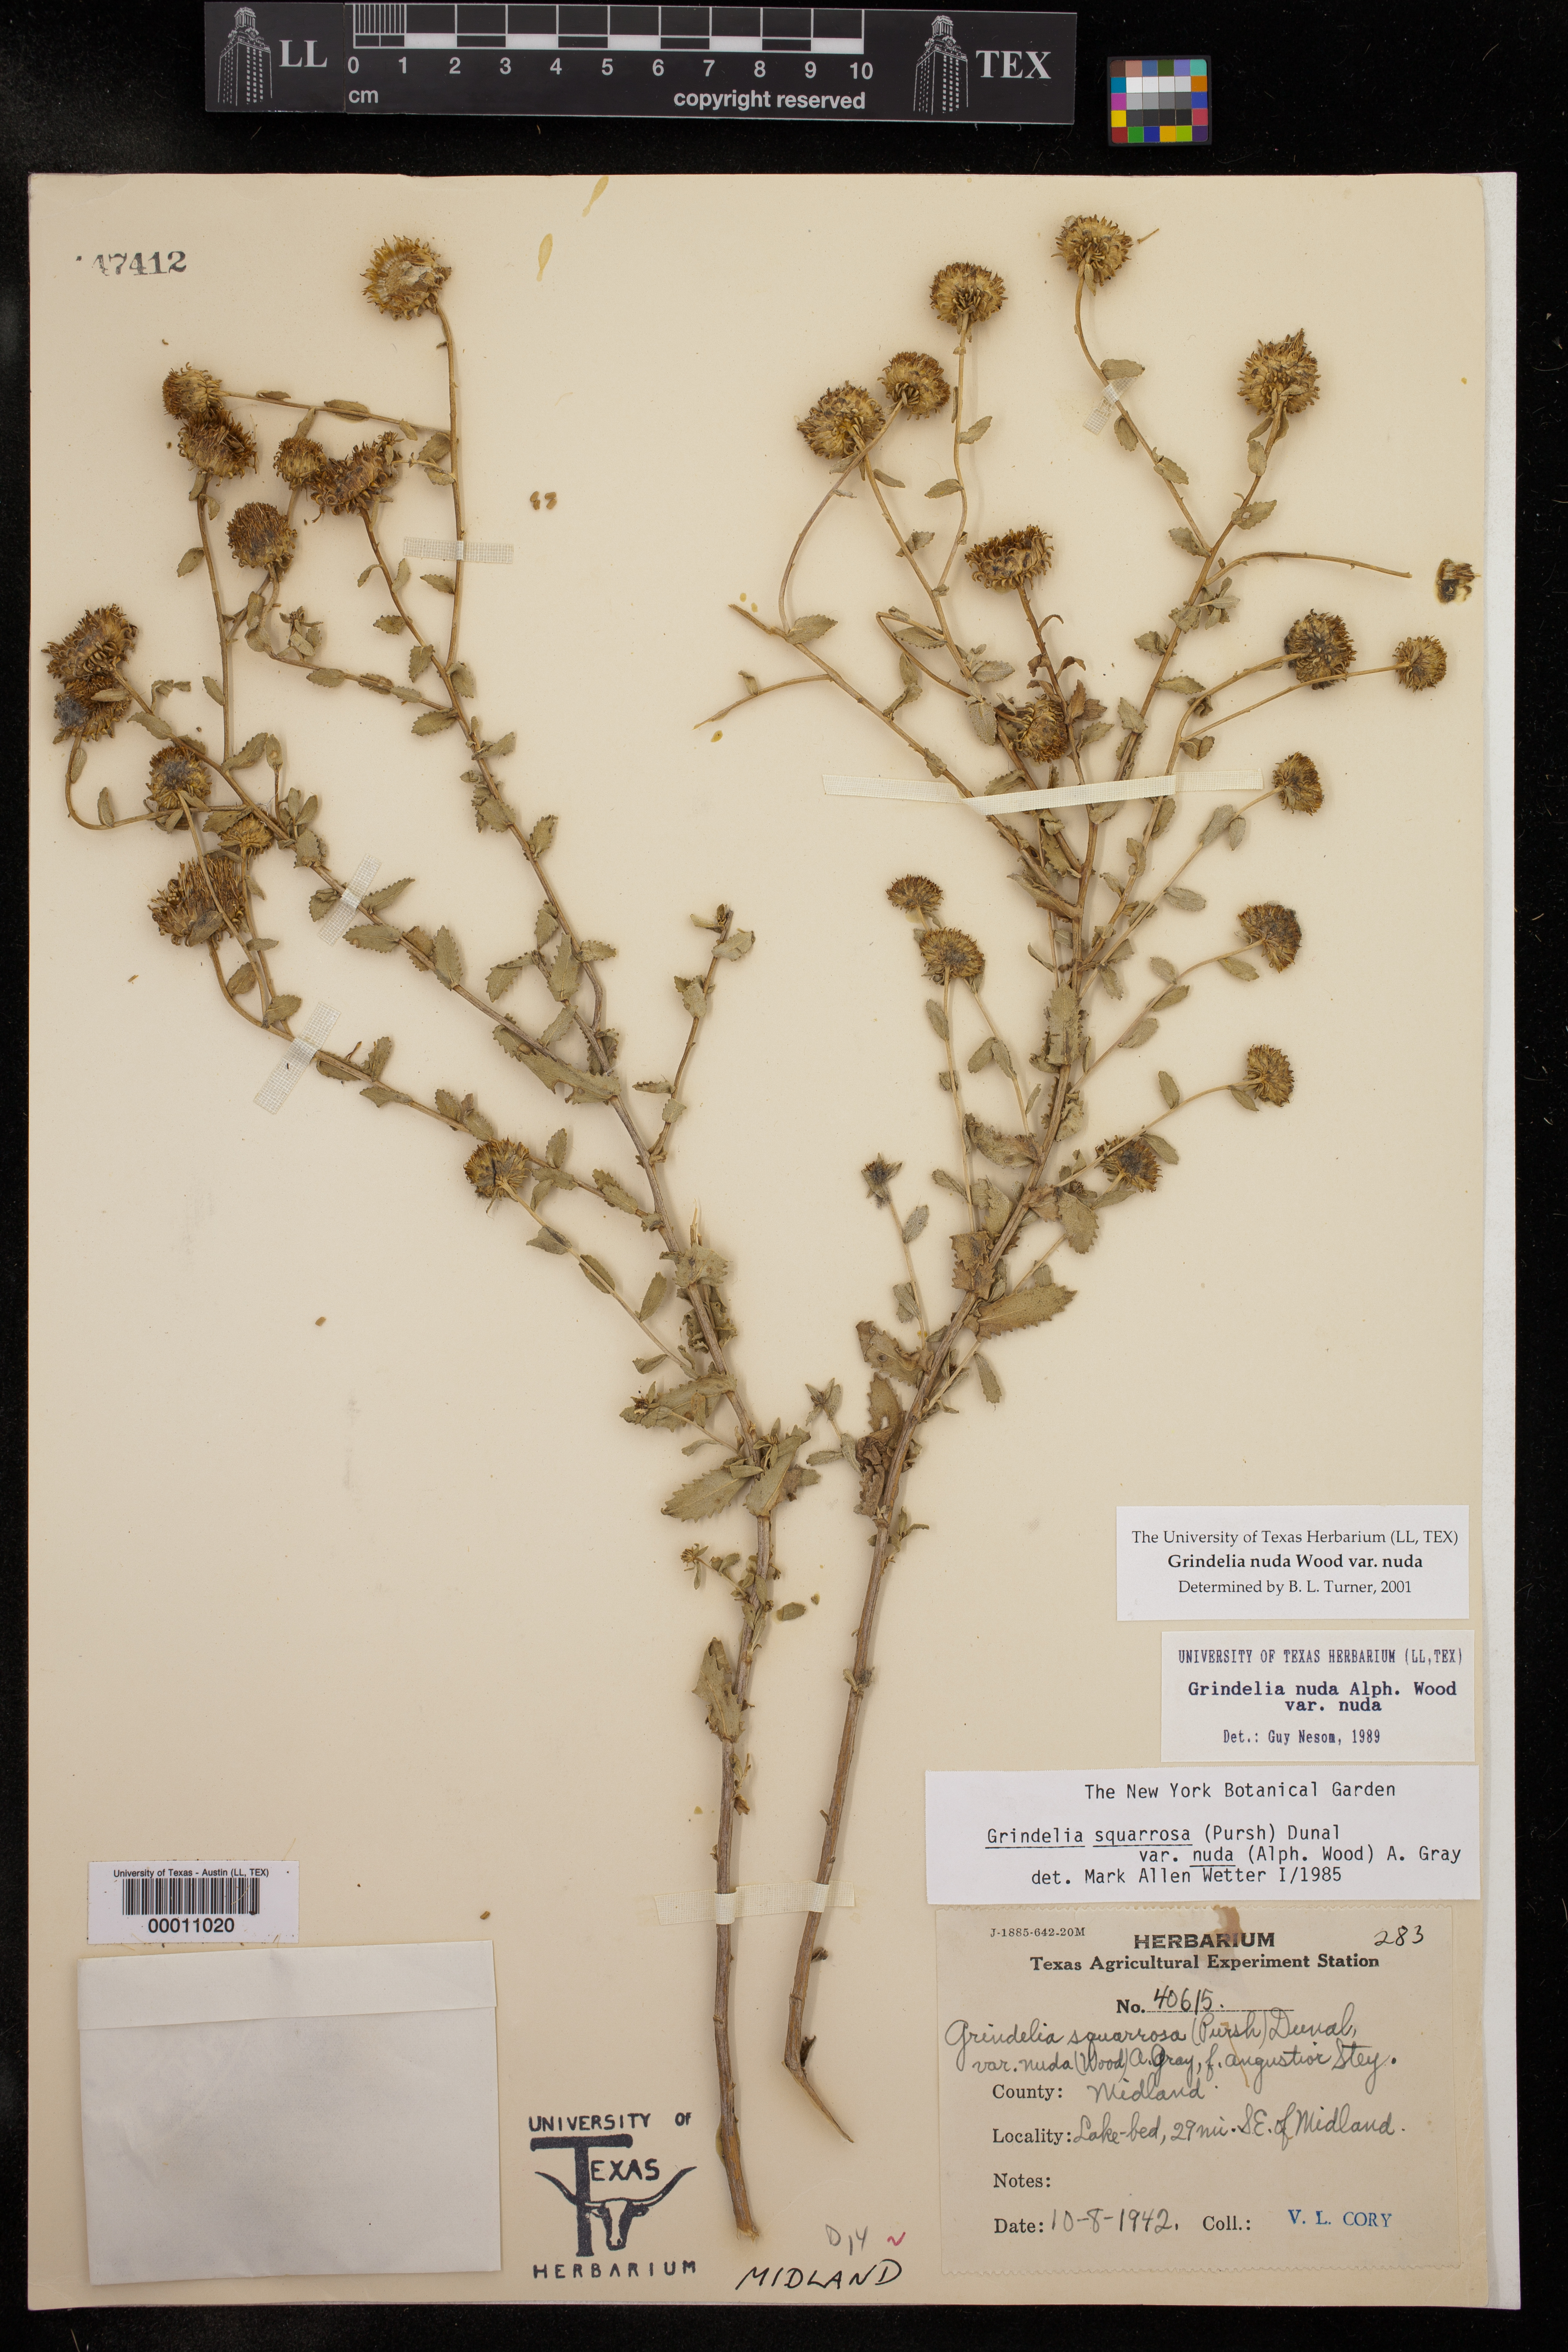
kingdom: Plantae
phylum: Tracheophyta
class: Magnoliopsida
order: Asterales
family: Asteraceae
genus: Grindelia
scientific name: Grindelia nuda
